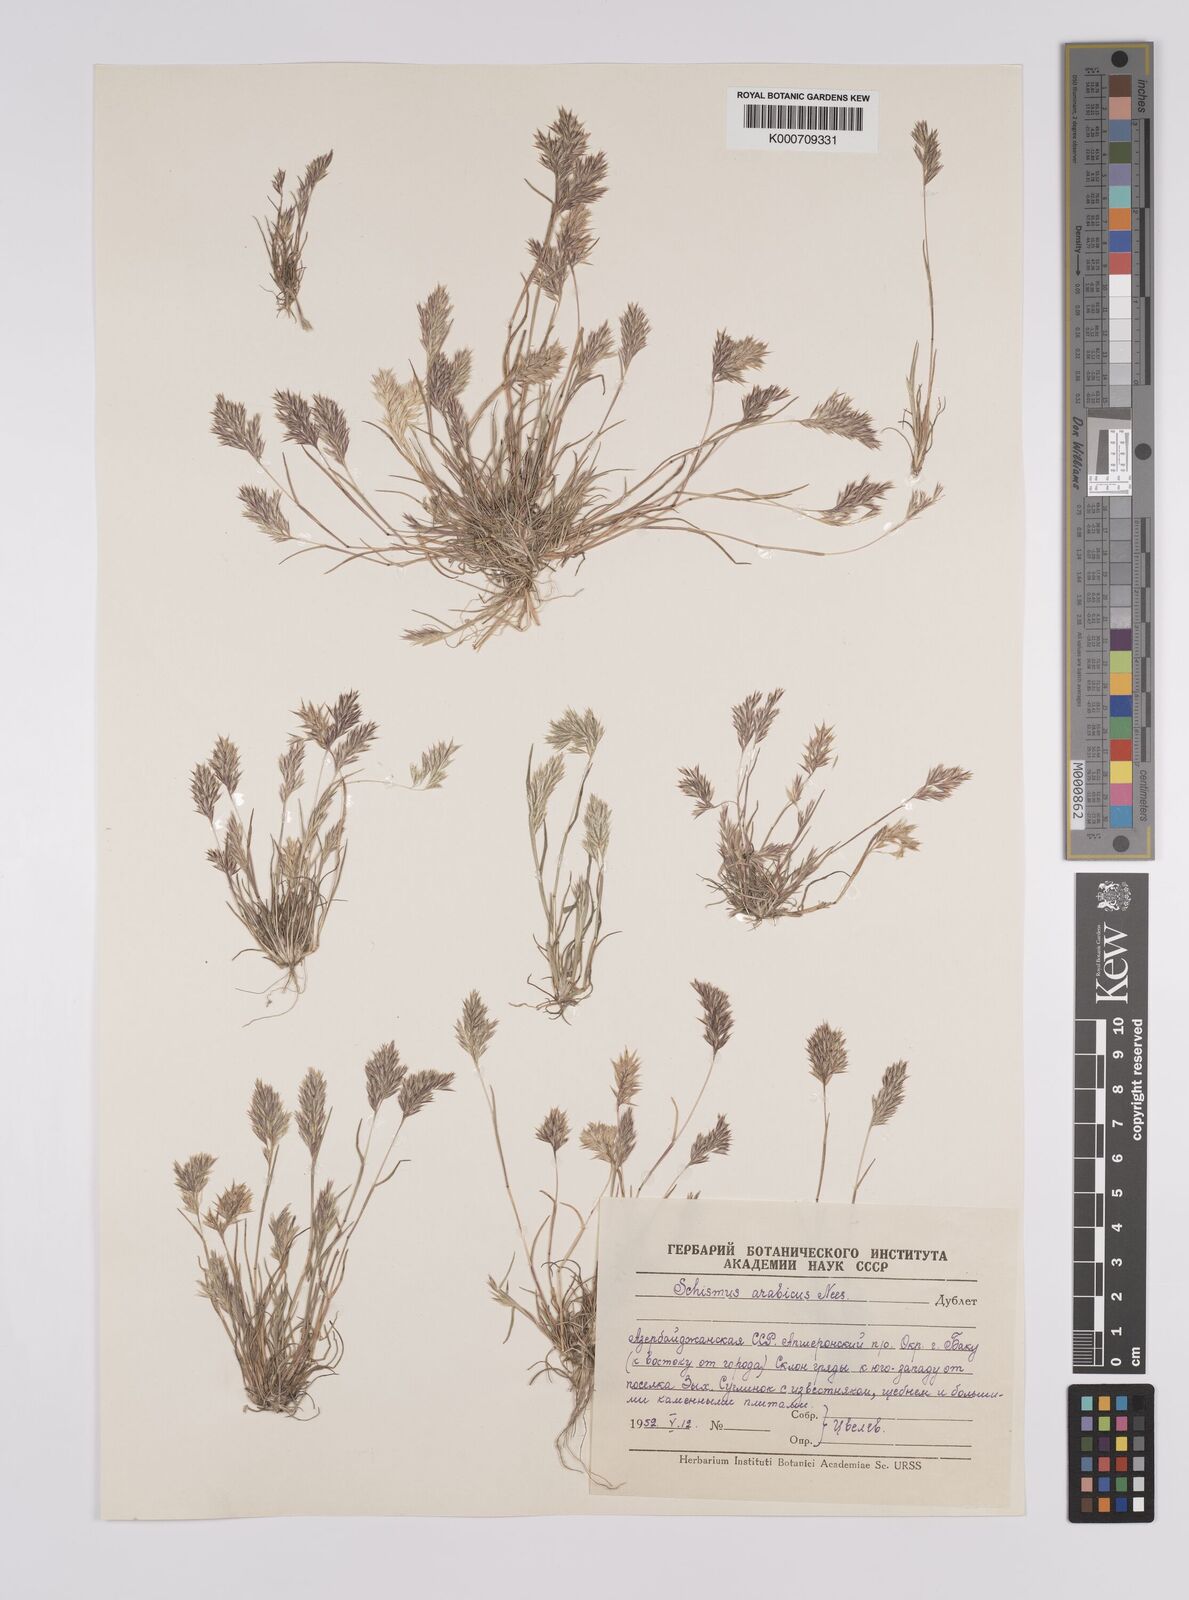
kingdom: Plantae
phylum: Tracheophyta
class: Liliopsida
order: Poales
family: Poaceae
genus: Schismus
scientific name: Schismus arabicus
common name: Arabian schismus
